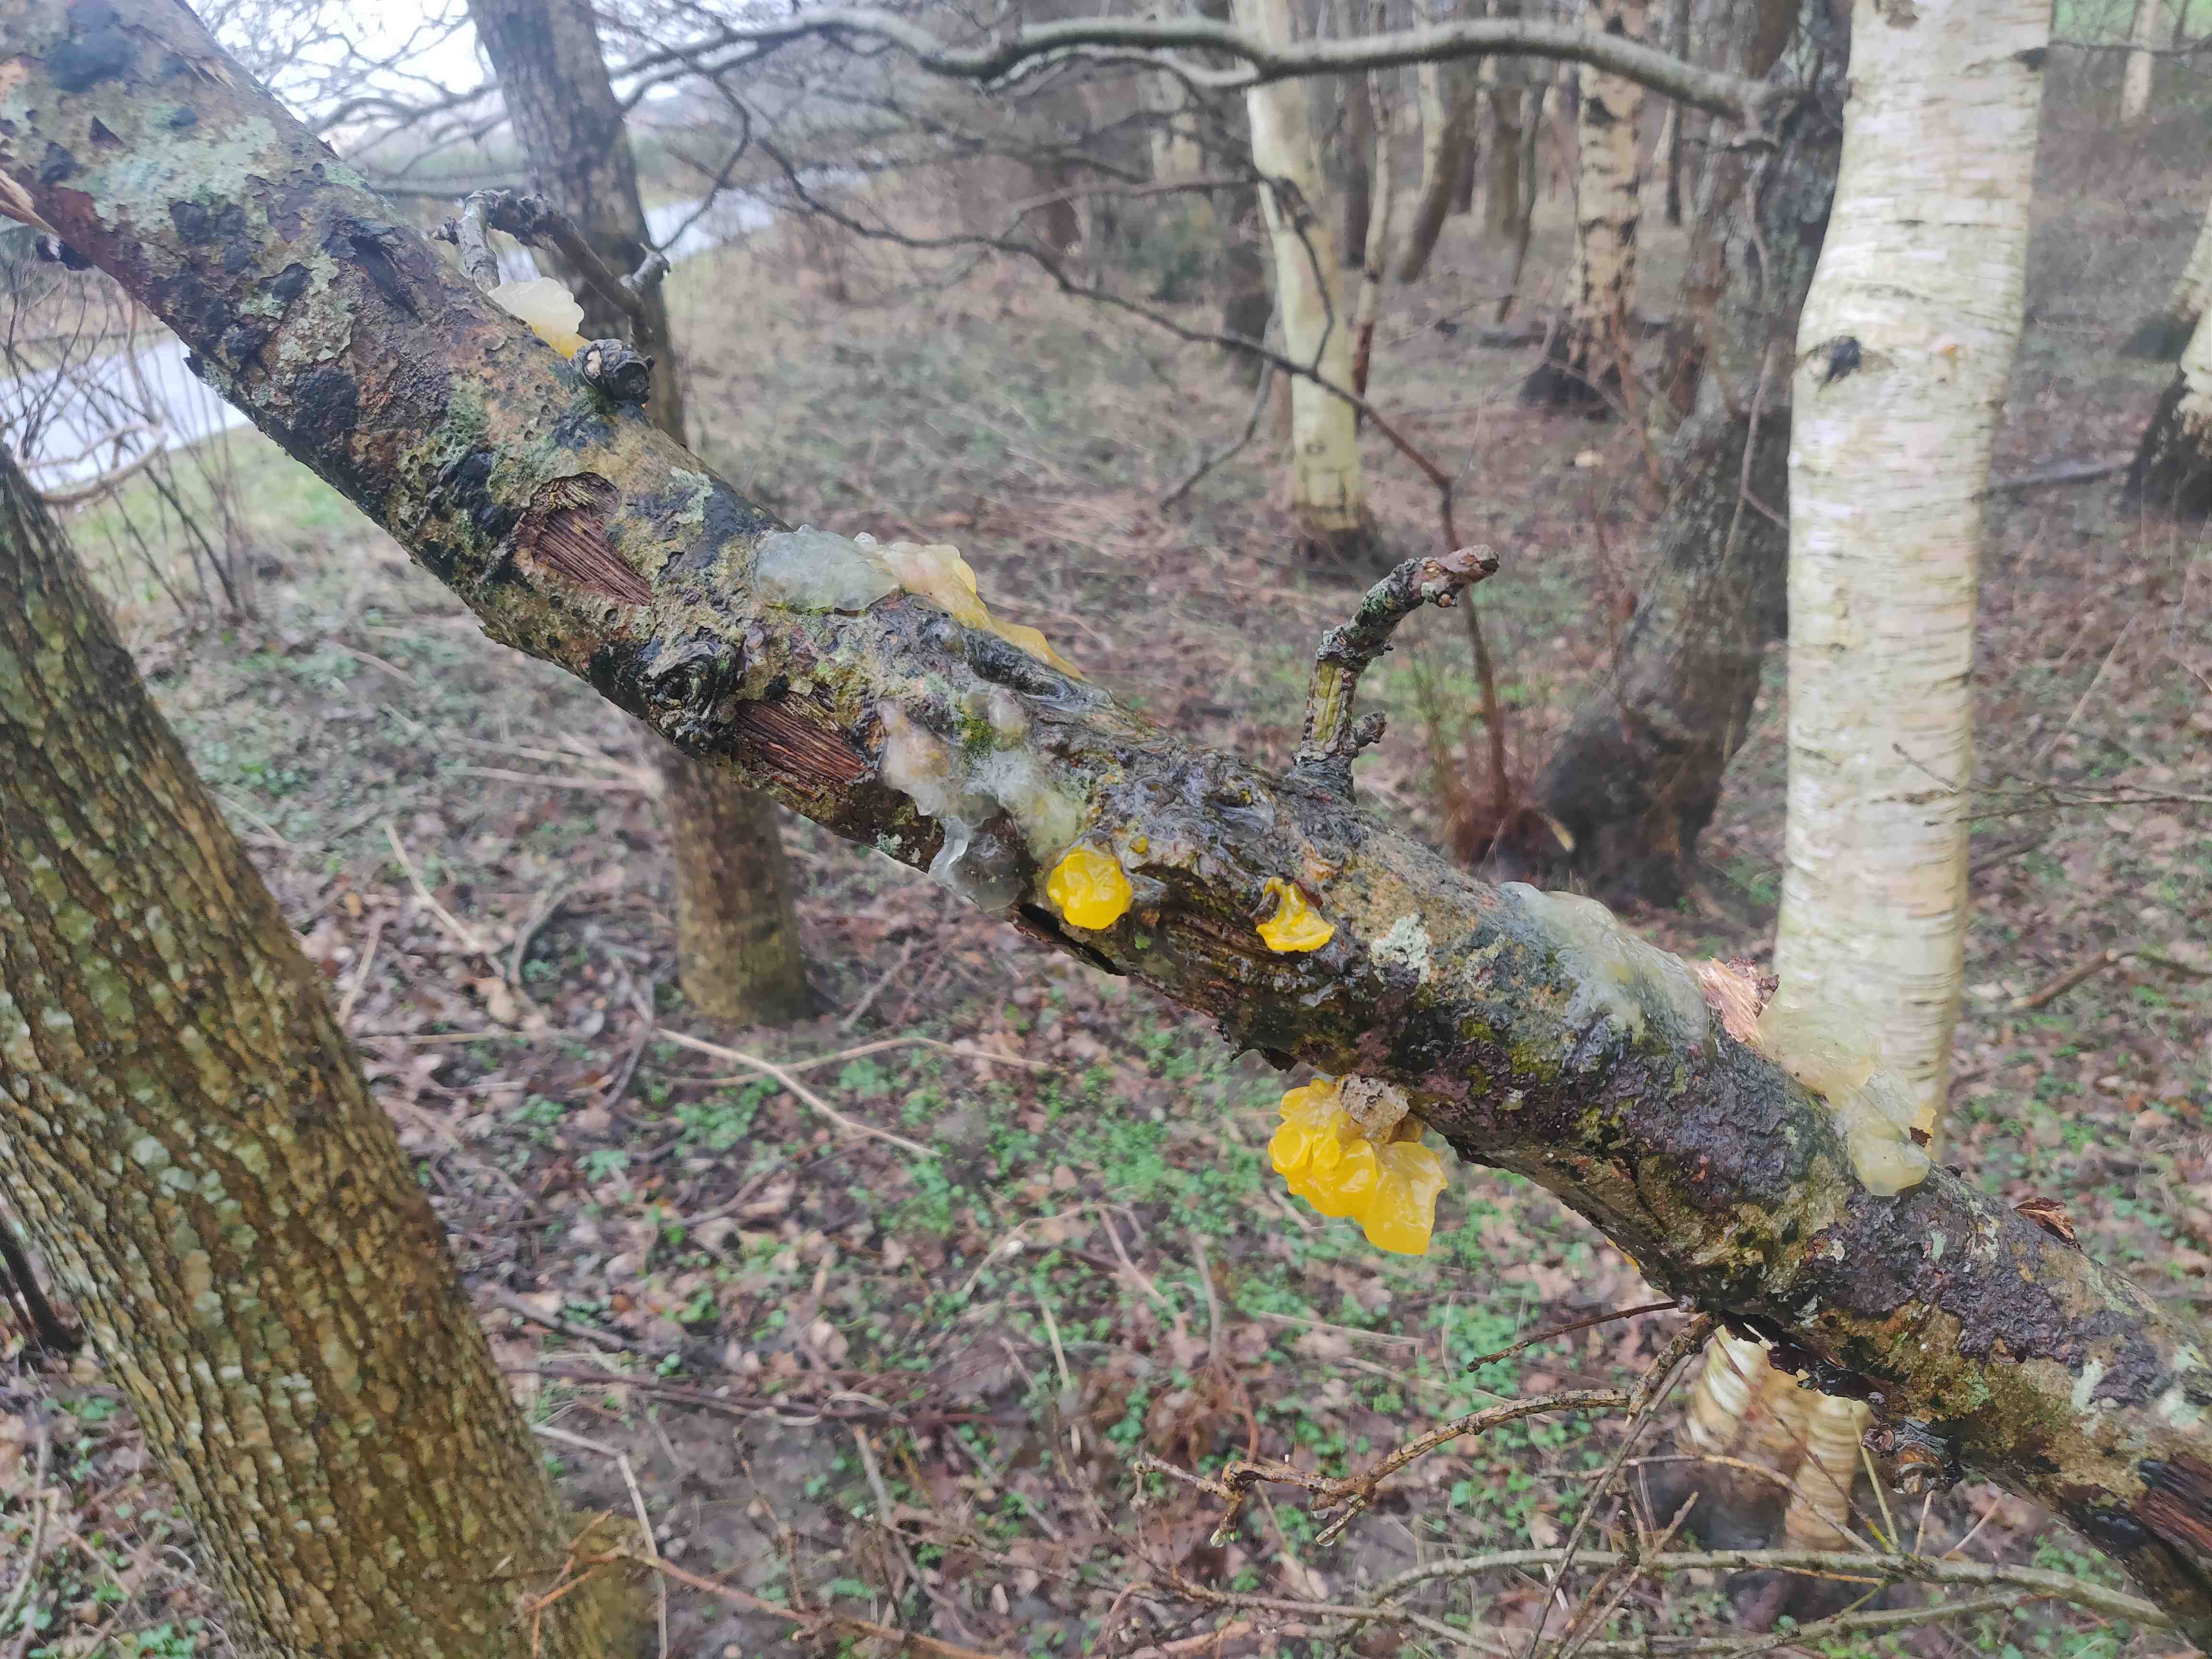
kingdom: Fungi
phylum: Basidiomycota
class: Tremellomycetes
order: Tremellales
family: Tremellaceae
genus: Tremella
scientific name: Tremella mesenterica
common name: gul bævresvamp
